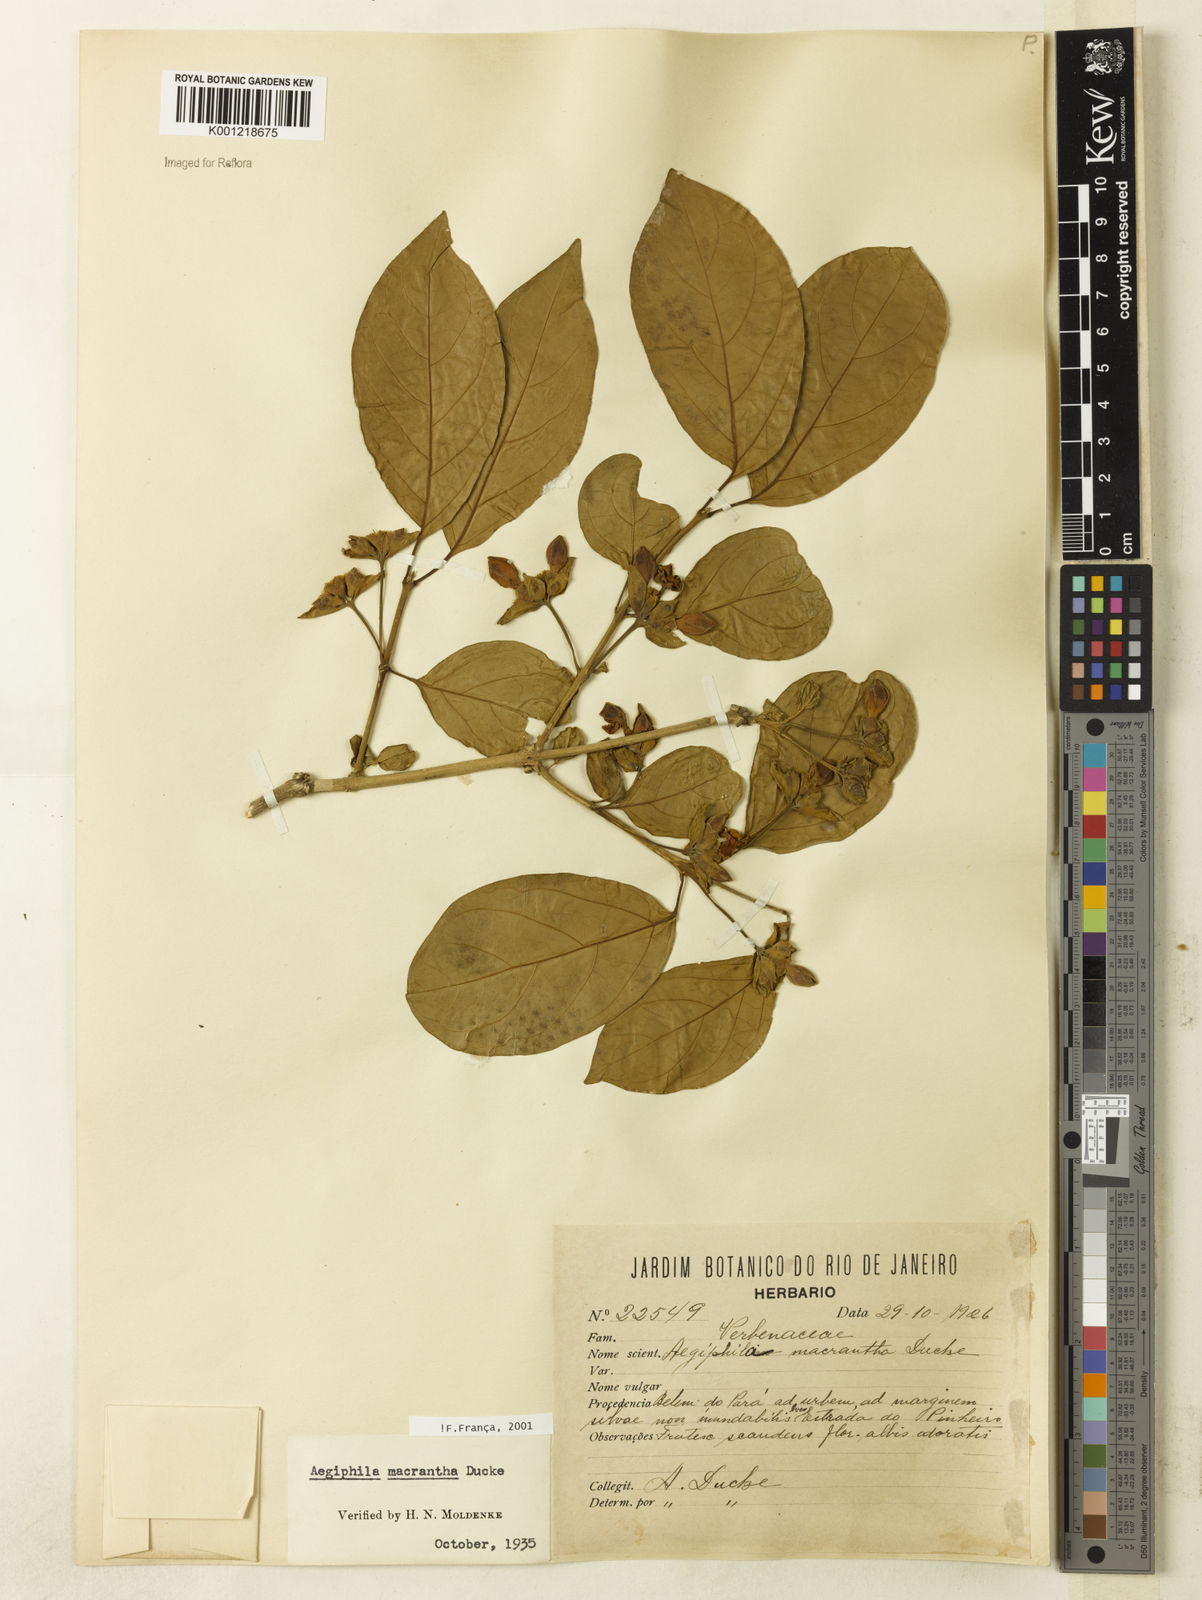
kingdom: Plantae
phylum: Tracheophyta
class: Magnoliopsida
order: Lamiales
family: Lamiaceae
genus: Aegiphila
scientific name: Aegiphila macrantha
